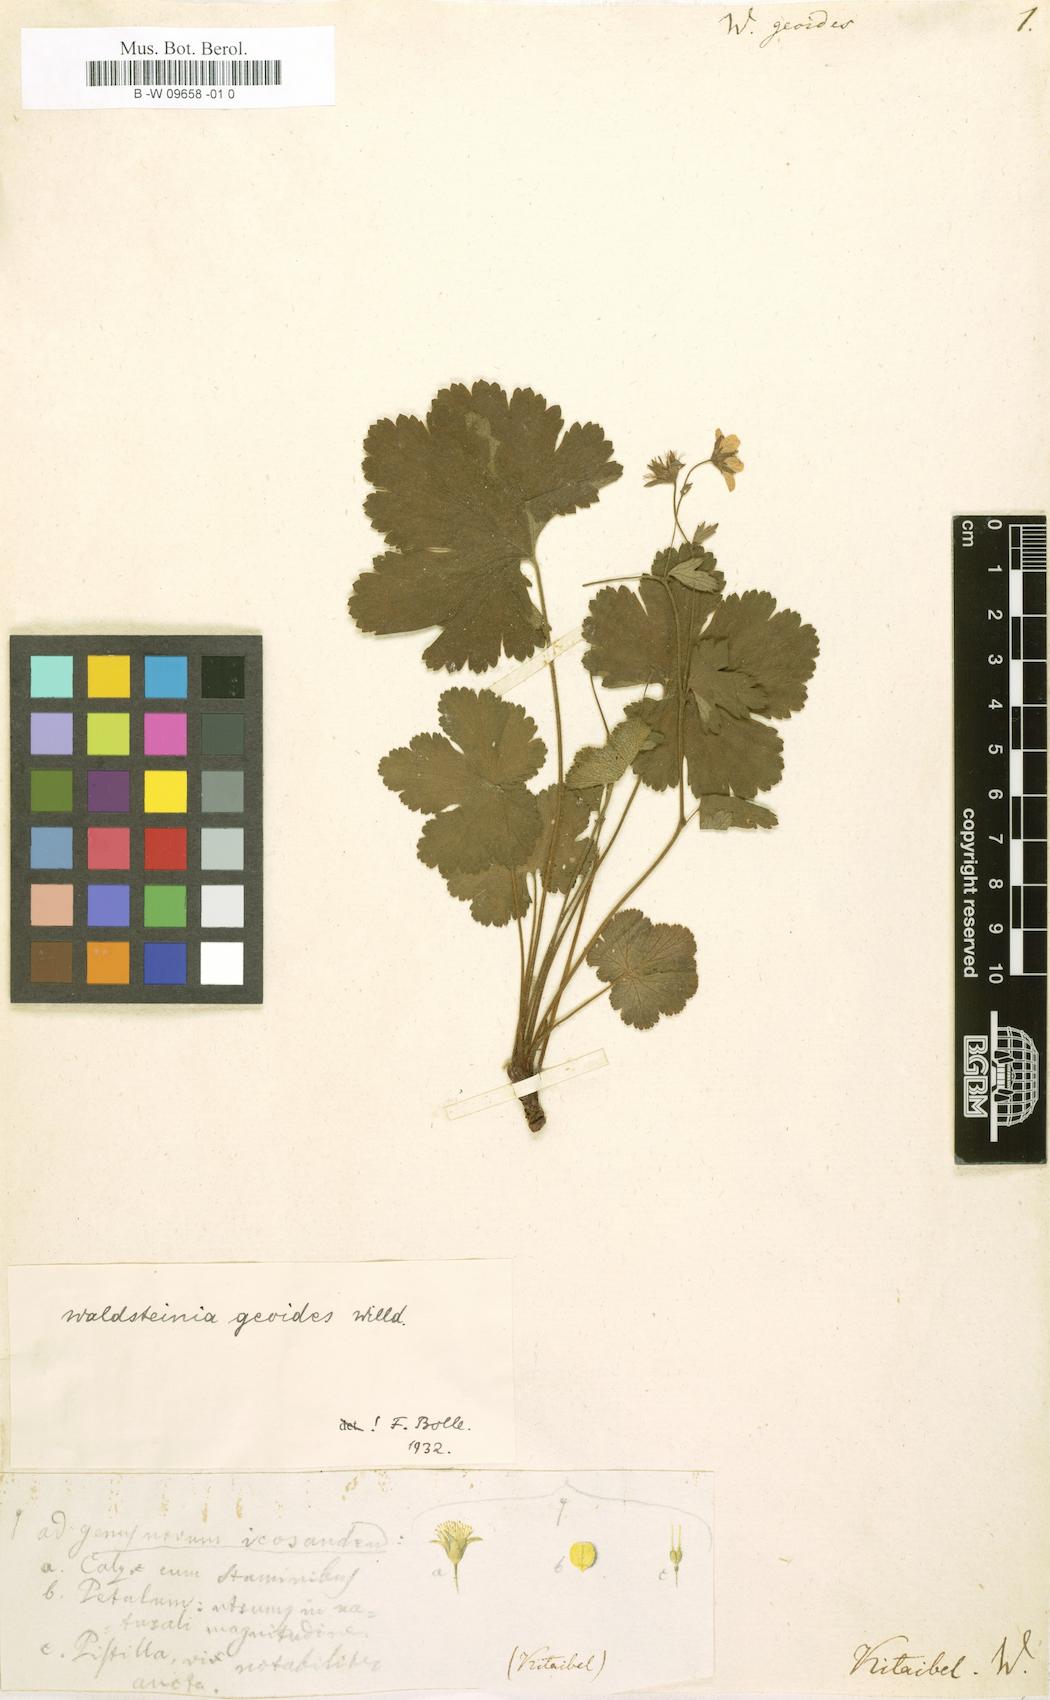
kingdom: Plantae
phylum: Tracheophyta
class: Magnoliopsida
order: Rosales
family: Rosaceae
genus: Geum
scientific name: Geum waldsteinia
